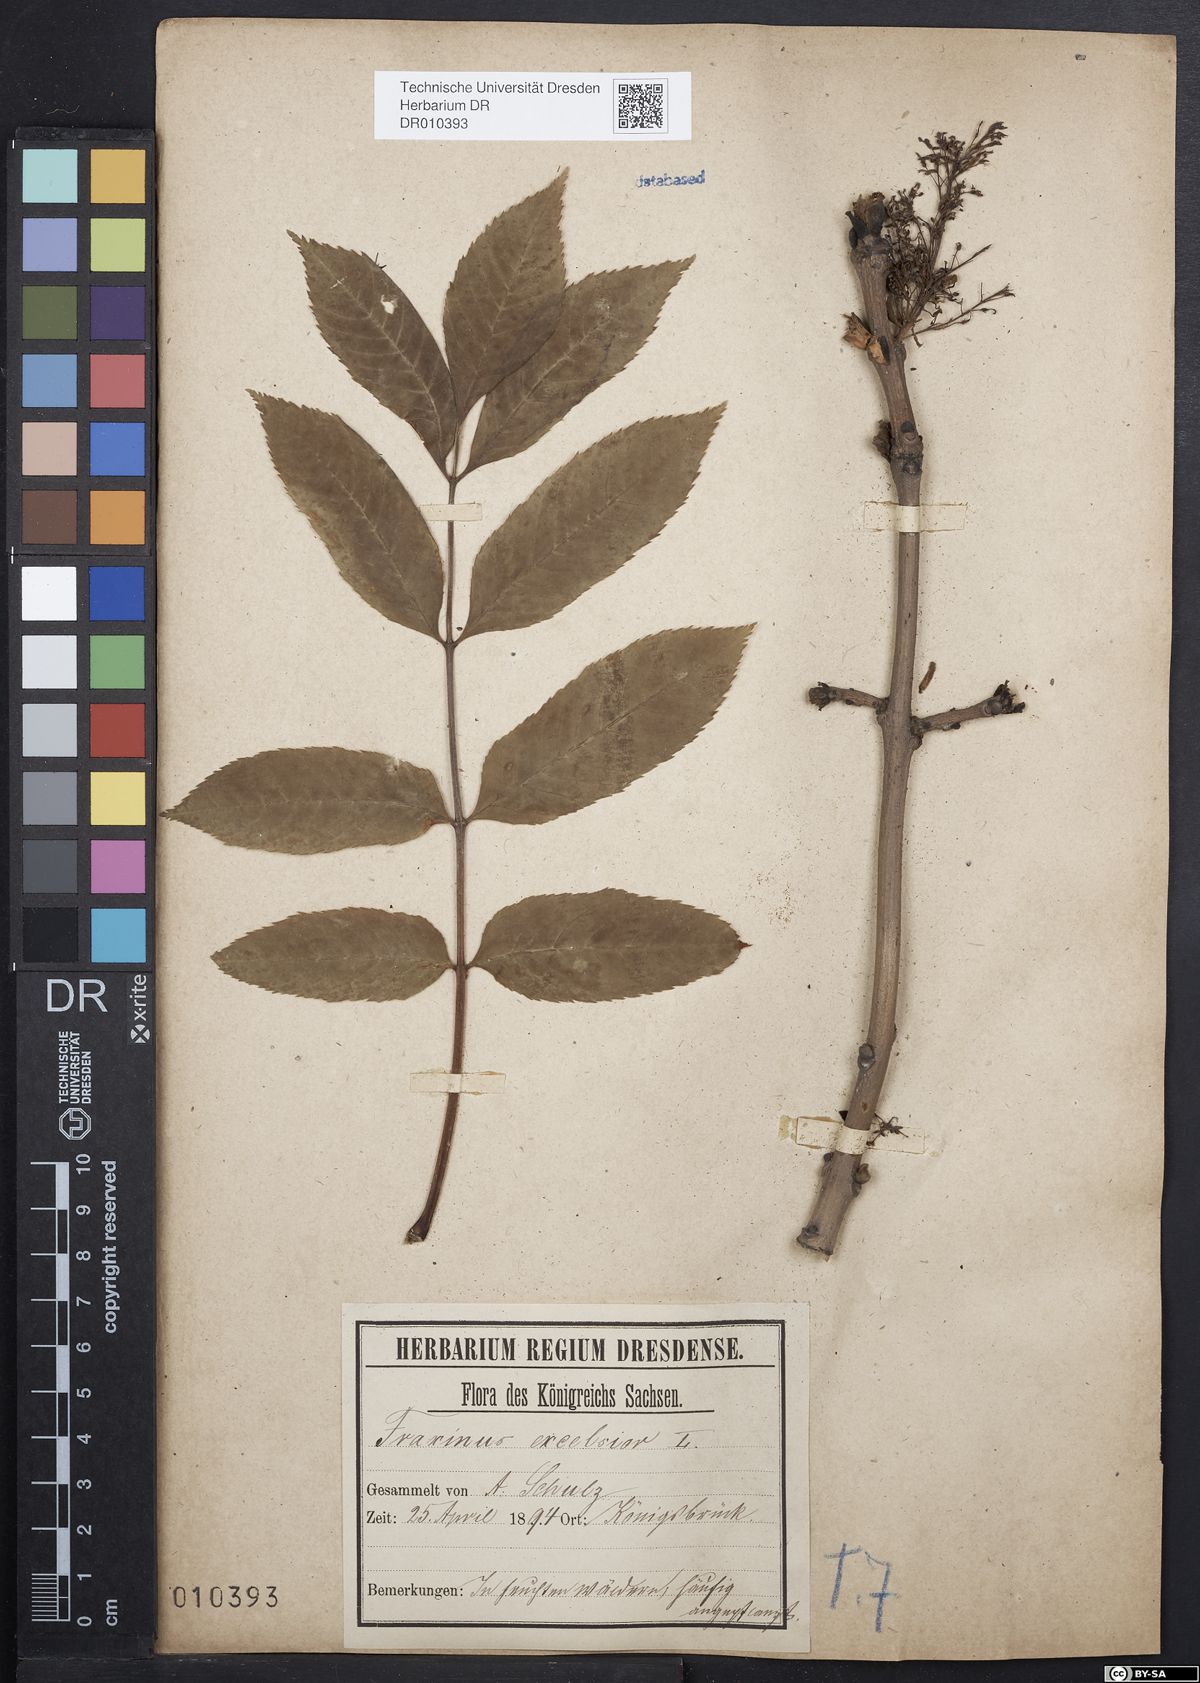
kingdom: Plantae
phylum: Tracheophyta
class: Magnoliopsida
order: Lamiales
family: Oleaceae
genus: Fraxinus
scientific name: Fraxinus excelsior
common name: European ash
